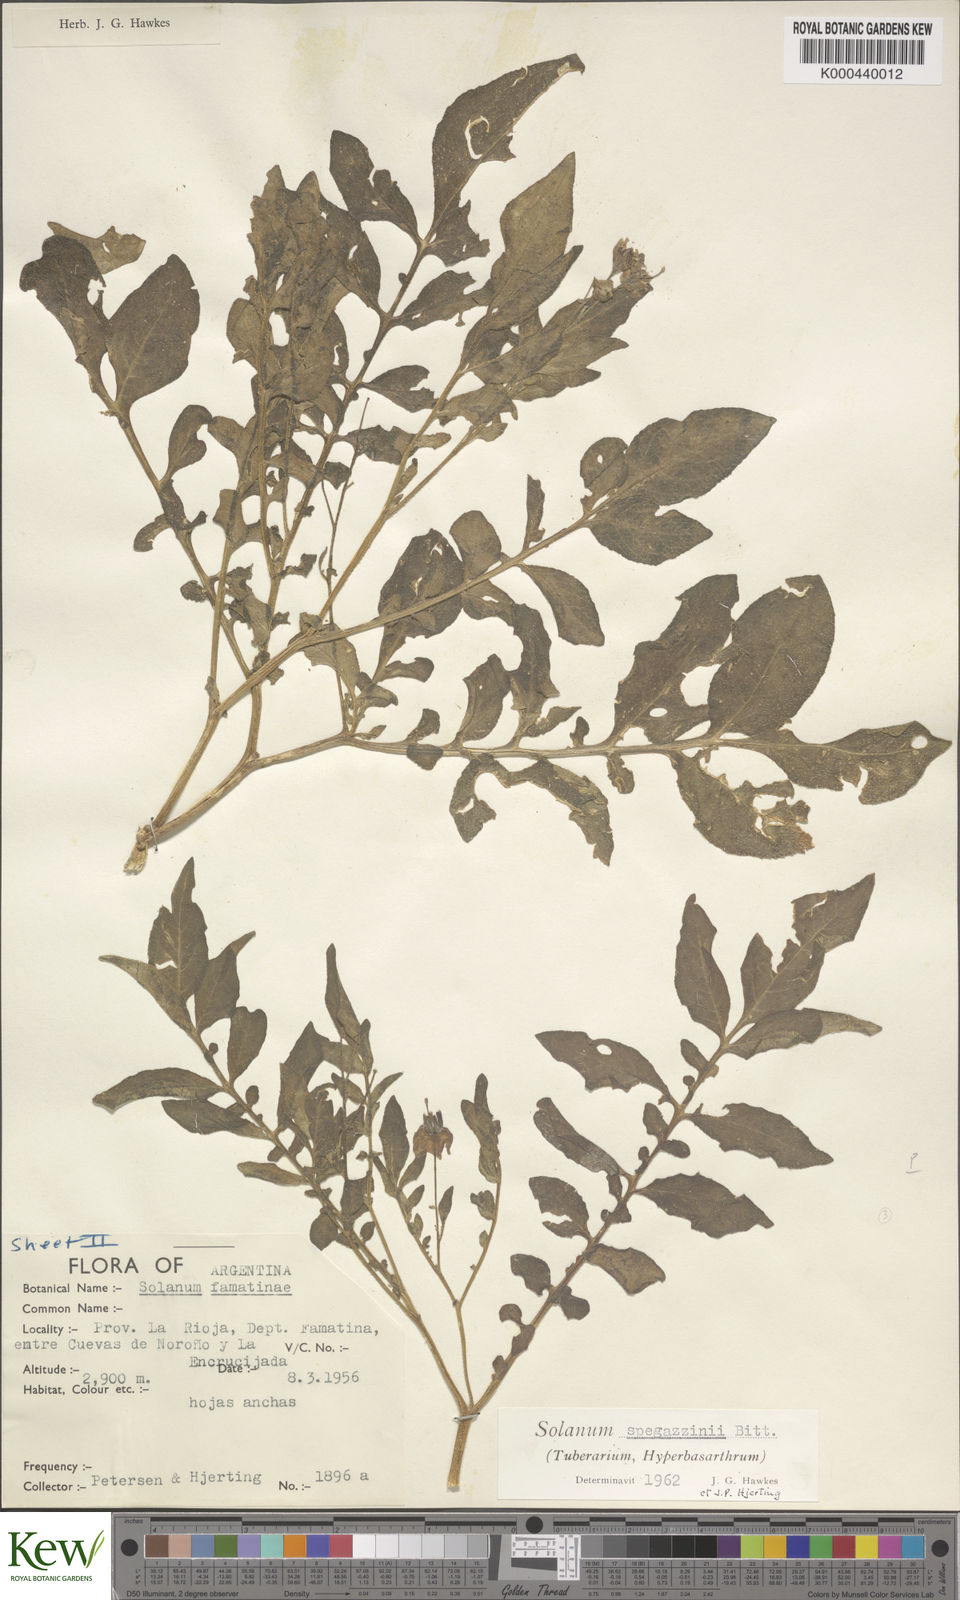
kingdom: Plantae
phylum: Tracheophyta
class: Magnoliopsida
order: Solanales
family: Solanaceae
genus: Solanum
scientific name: Solanum brevicaule
